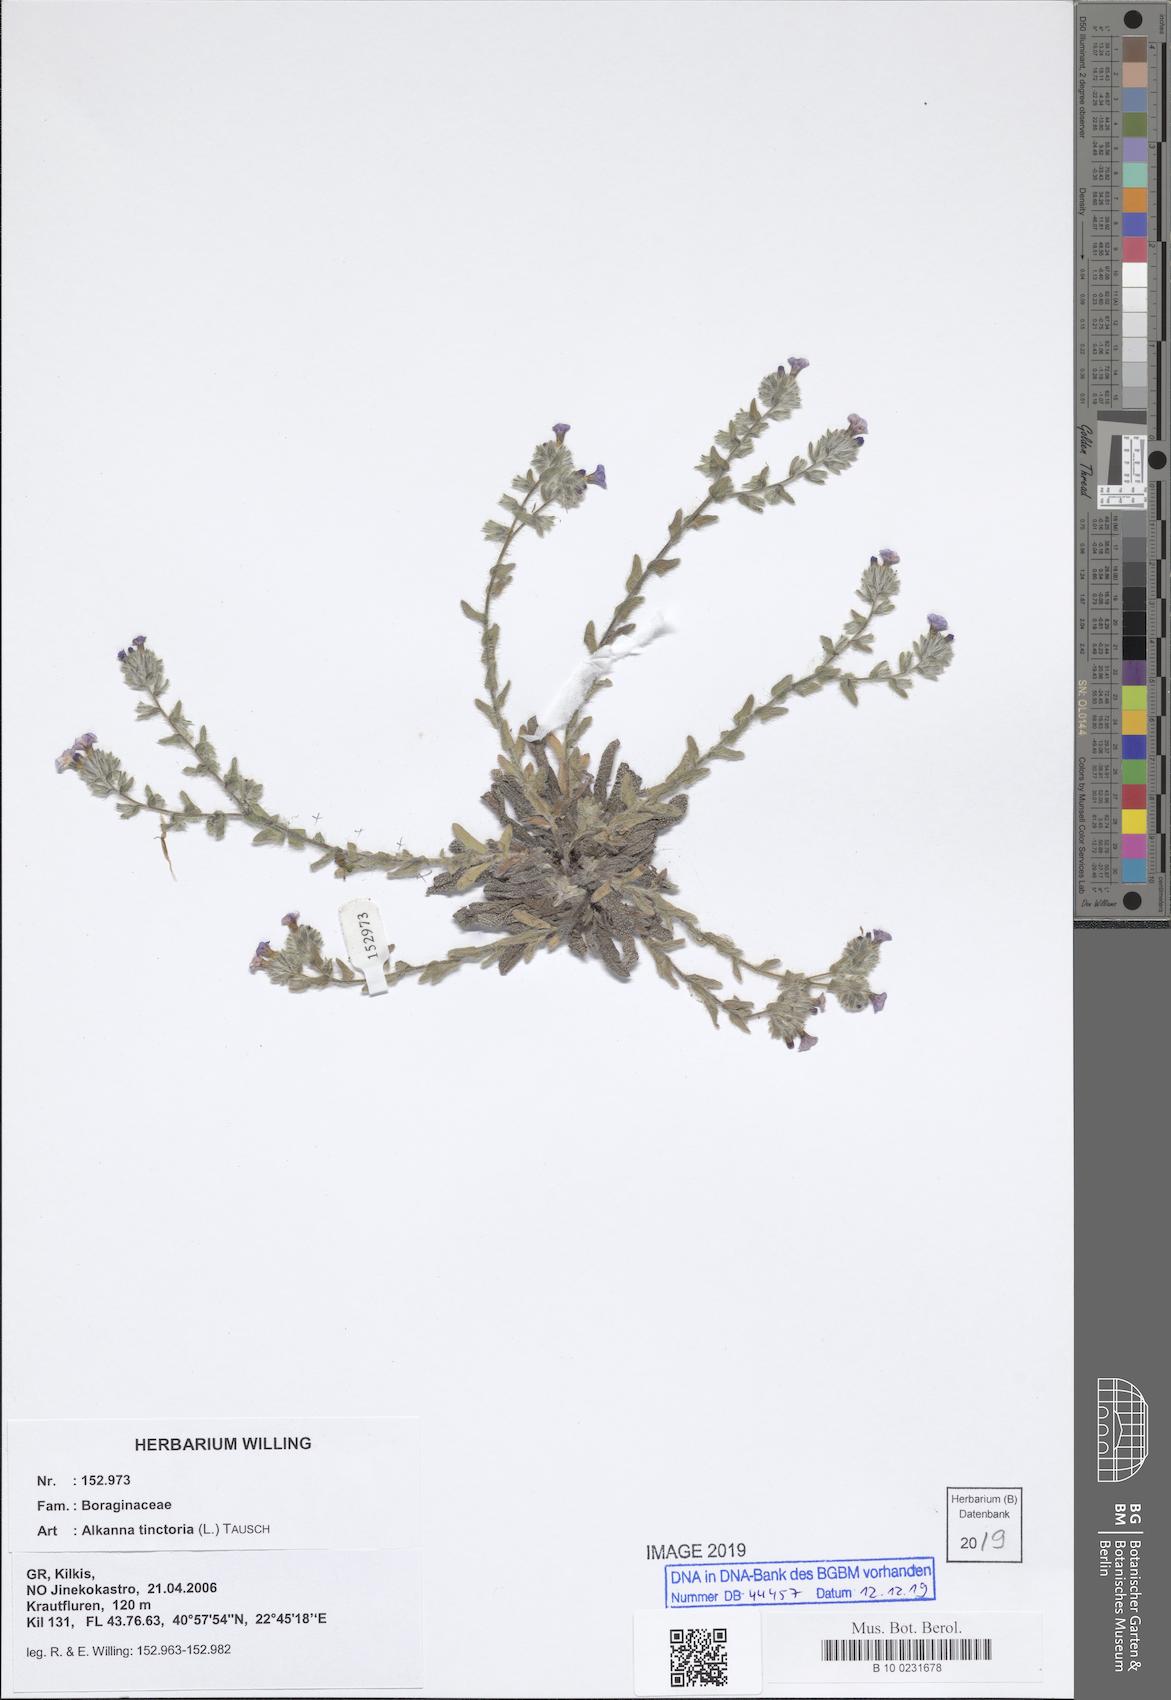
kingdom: Plantae
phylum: Tracheophyta
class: Magnoliopsida
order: Boraginales
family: Boraginaceae
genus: Alkanna
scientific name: Alkanna tinctoria
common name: Dyer's-alkanet
